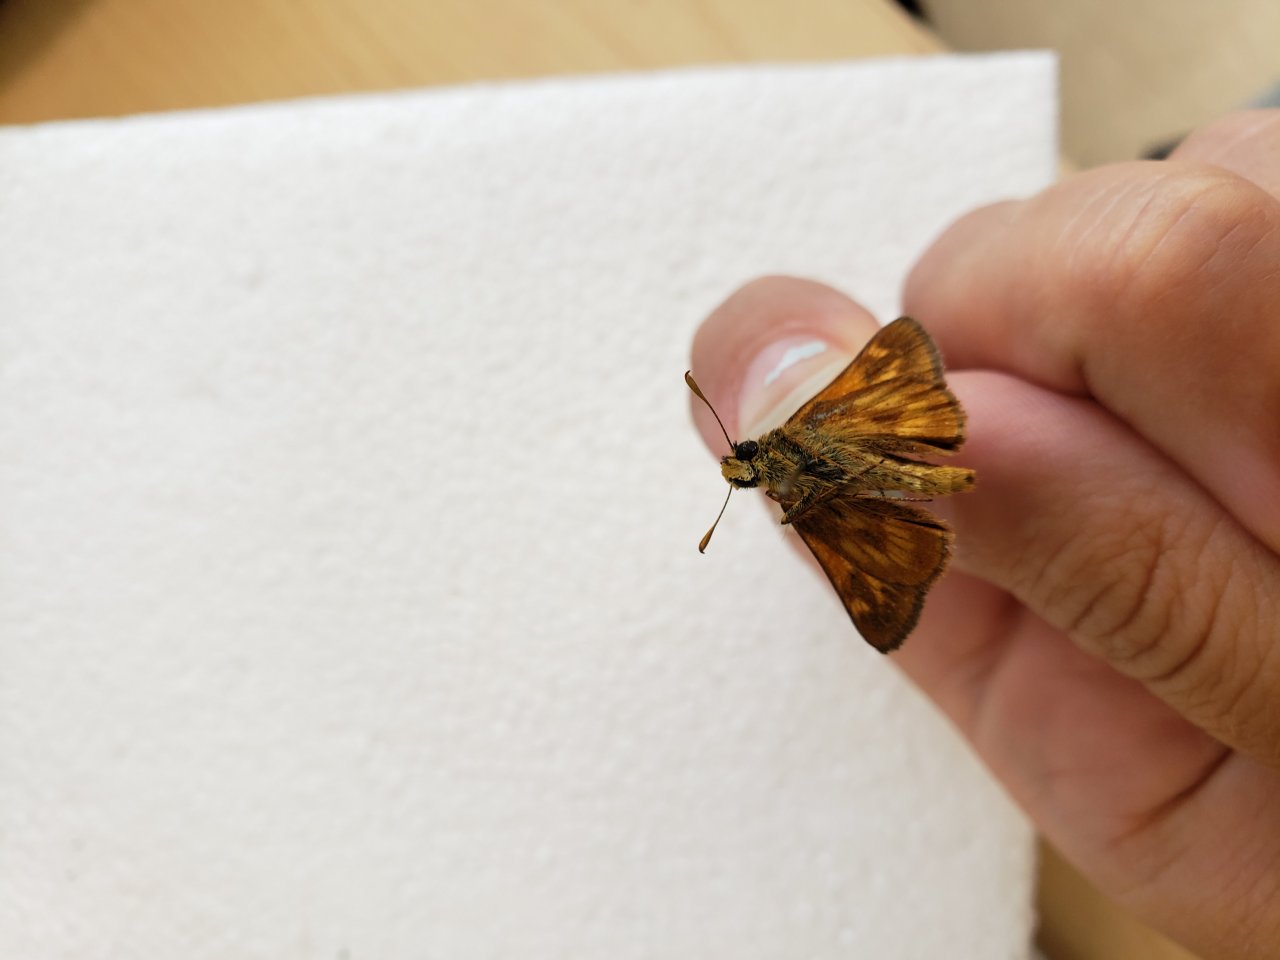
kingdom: Animalia
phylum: Arthropoda
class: Insecta
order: Lepidoptera
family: Hesperiidae
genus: Lon
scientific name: Lon hobomok
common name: Hobomok Skipper
